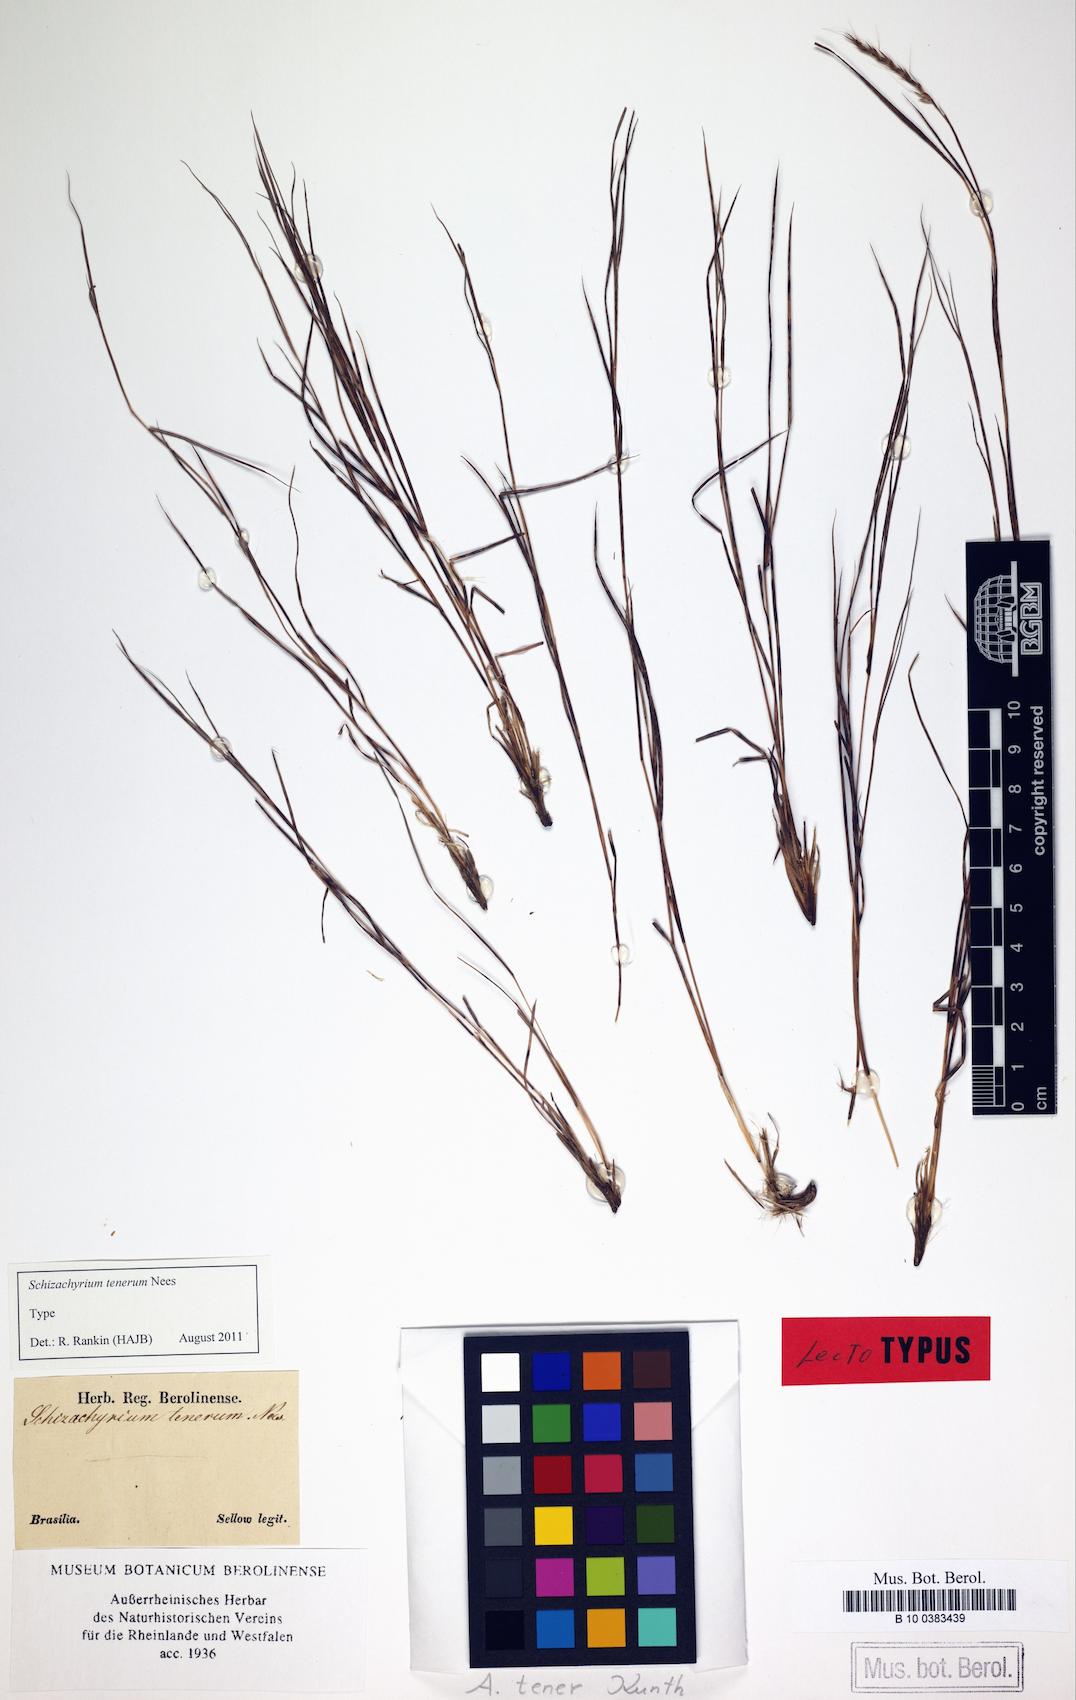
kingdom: Plantae
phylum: Tracheophyta
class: Liliopsida
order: Poales
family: Poaceae
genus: Andropogon
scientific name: Andropogon tener
